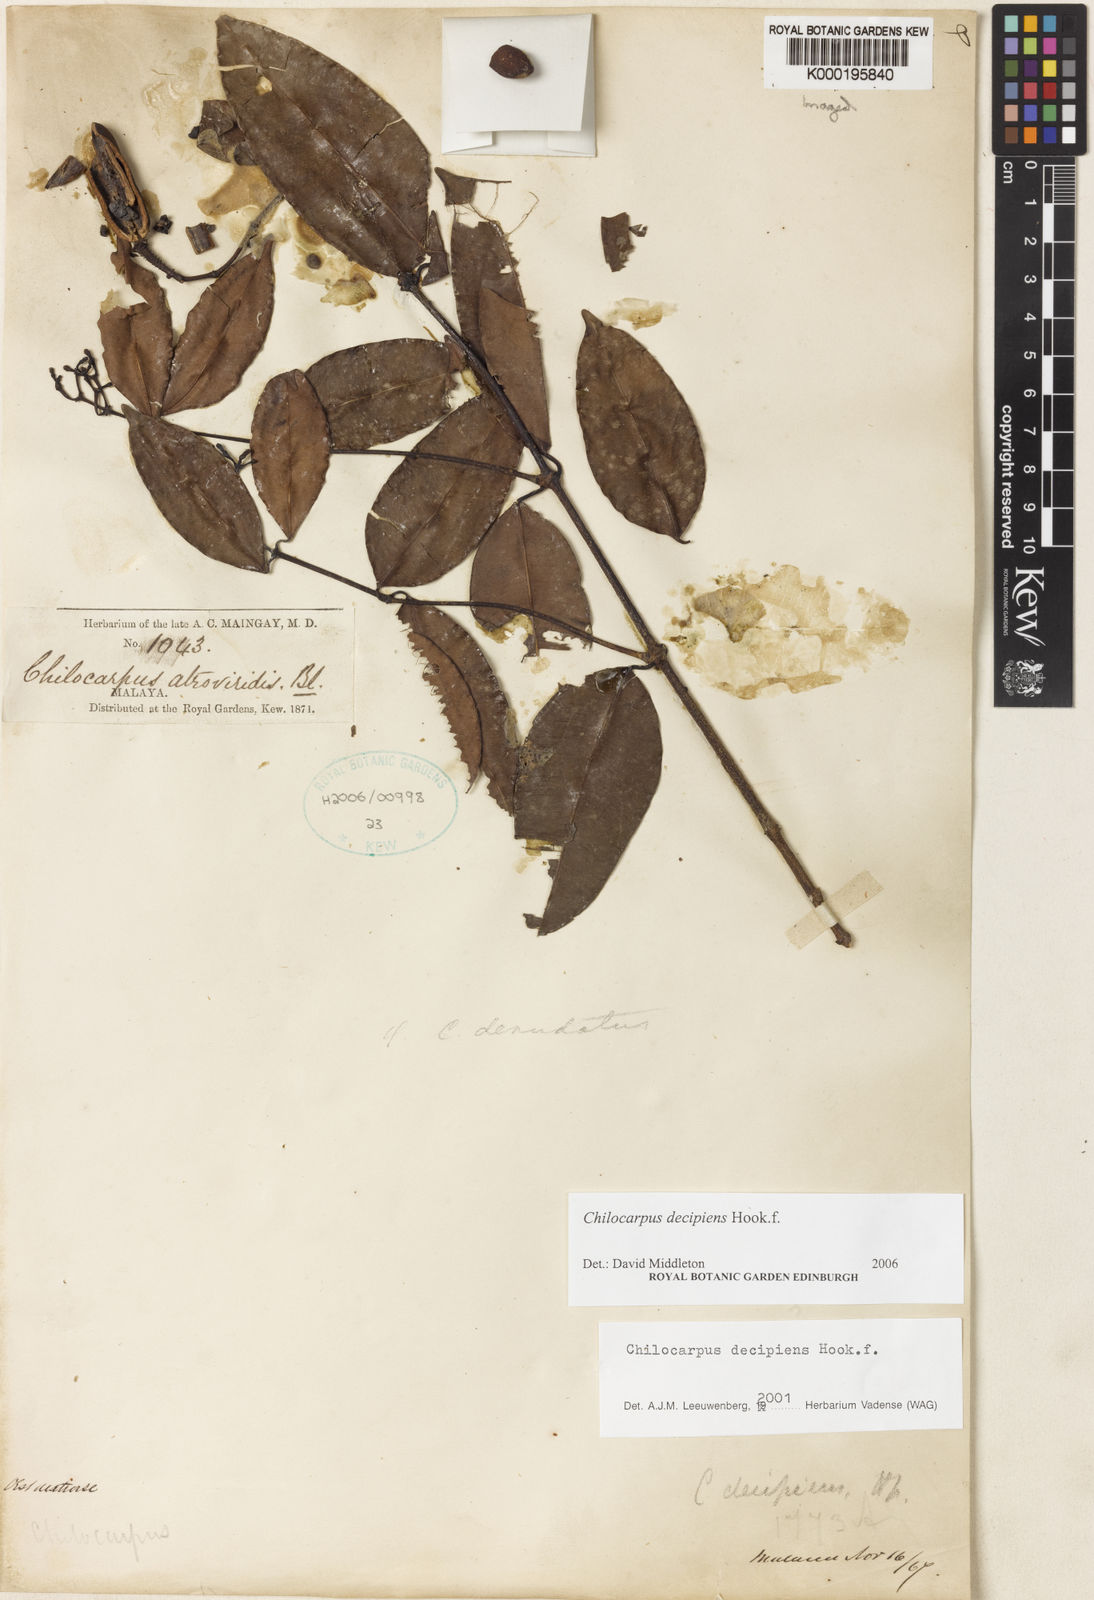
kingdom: Plantae
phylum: Tracheophyta
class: Magnoliopsida
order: Gentianales
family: Apocynaceae
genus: Chilocarpus
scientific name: Chilocarpus decipiens
